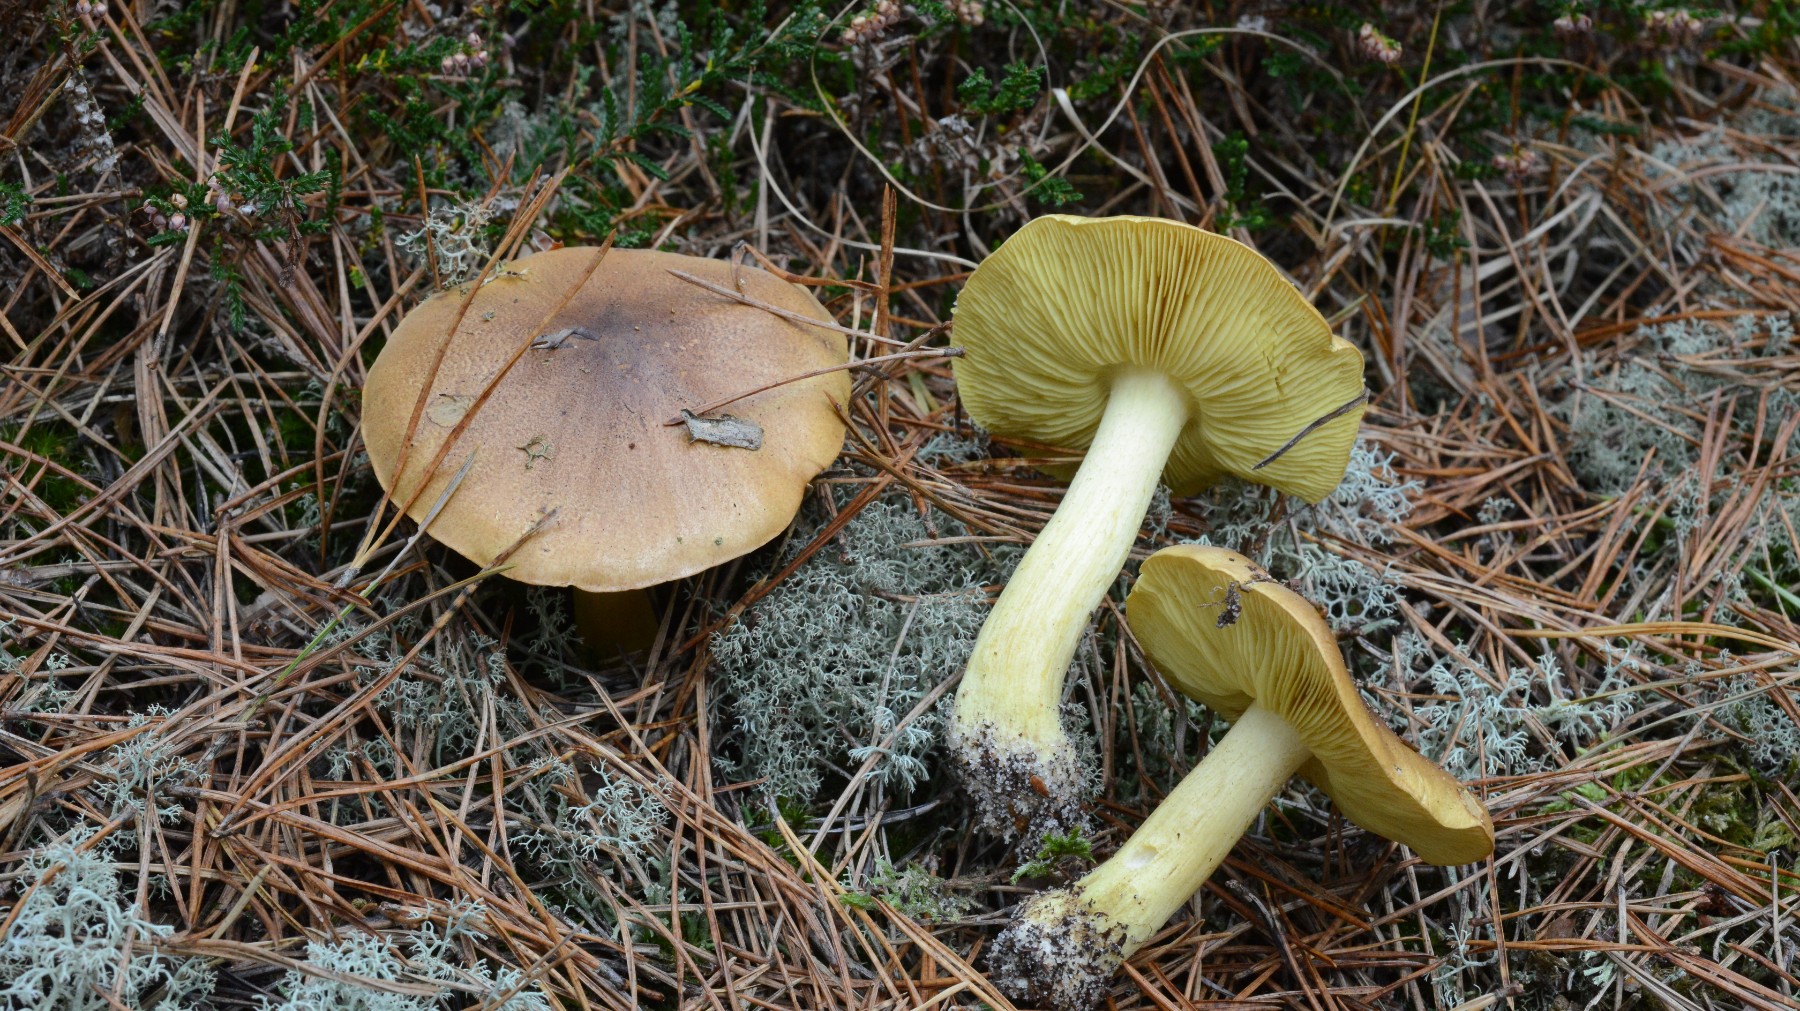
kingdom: Fungi
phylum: Basidiomycota
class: Agaricomycetes
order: Agaricales
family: Tricholomataceae
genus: Tricholoma
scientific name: Tricholoma equestre
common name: ægte ridderhat
